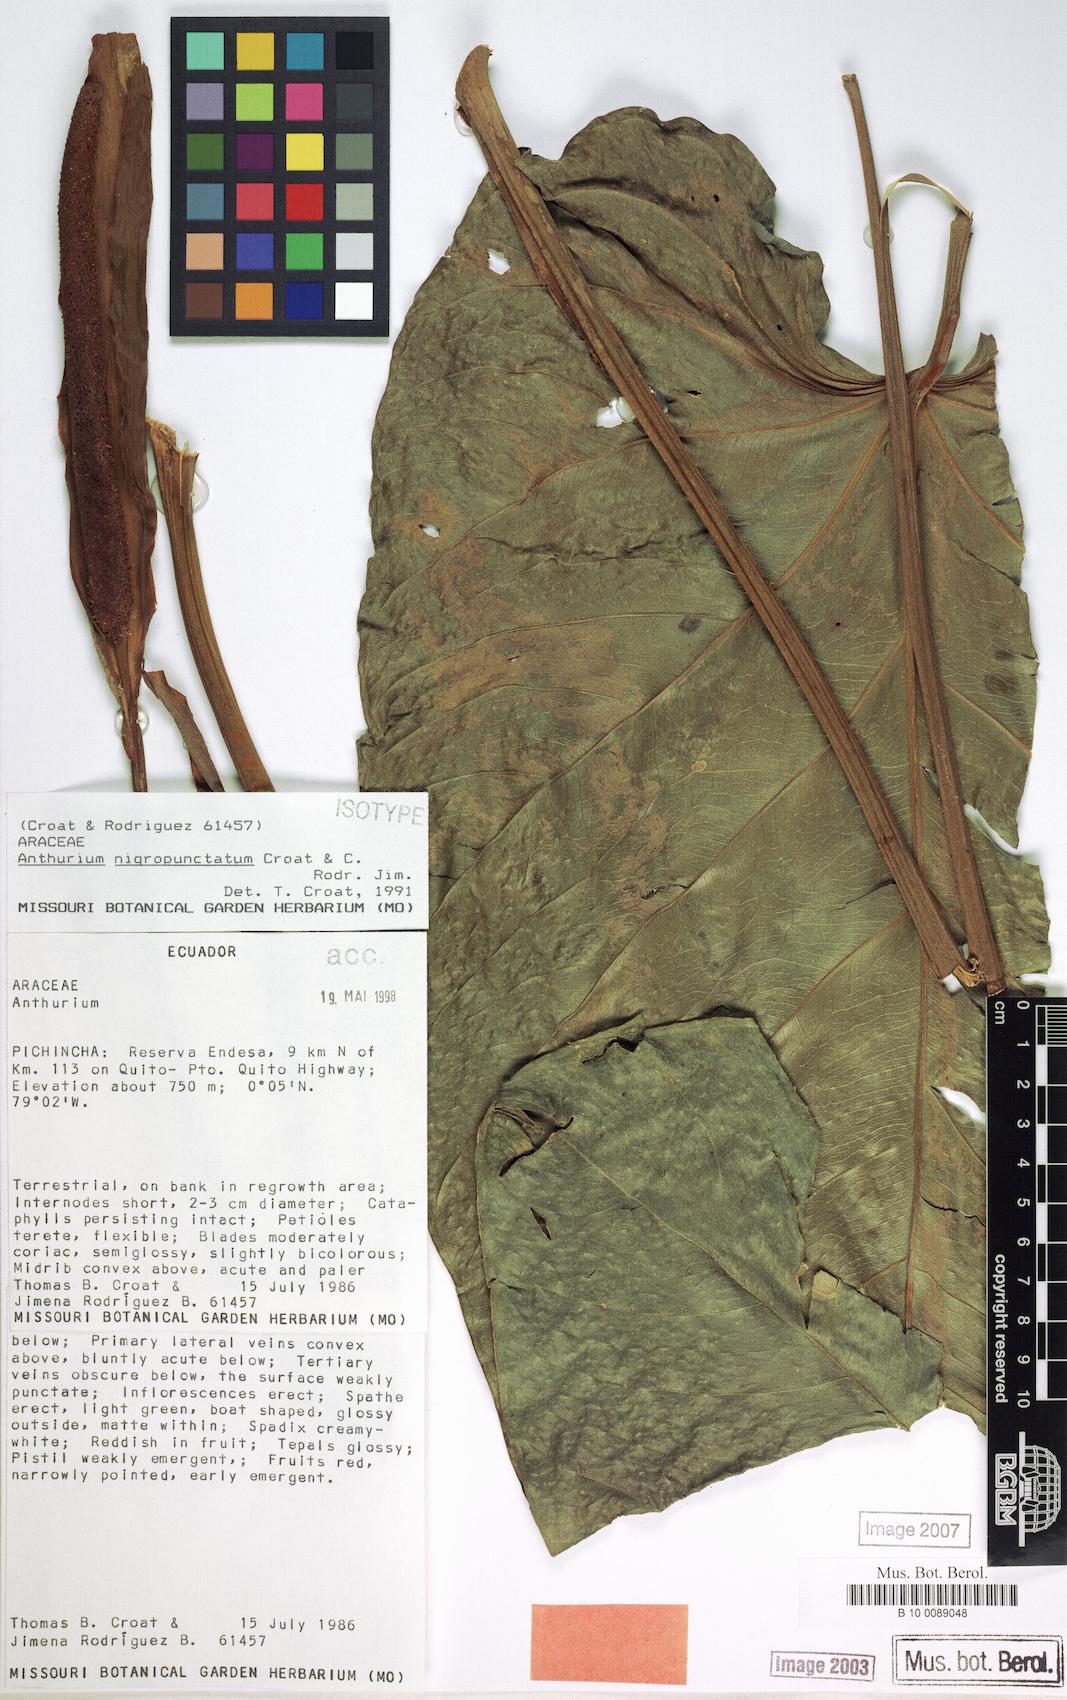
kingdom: Plantae
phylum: Tracheophyta
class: Liliopsida
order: Alismatales
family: Araceae
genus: Anthurium
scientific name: Anthurium nigropunctatum
